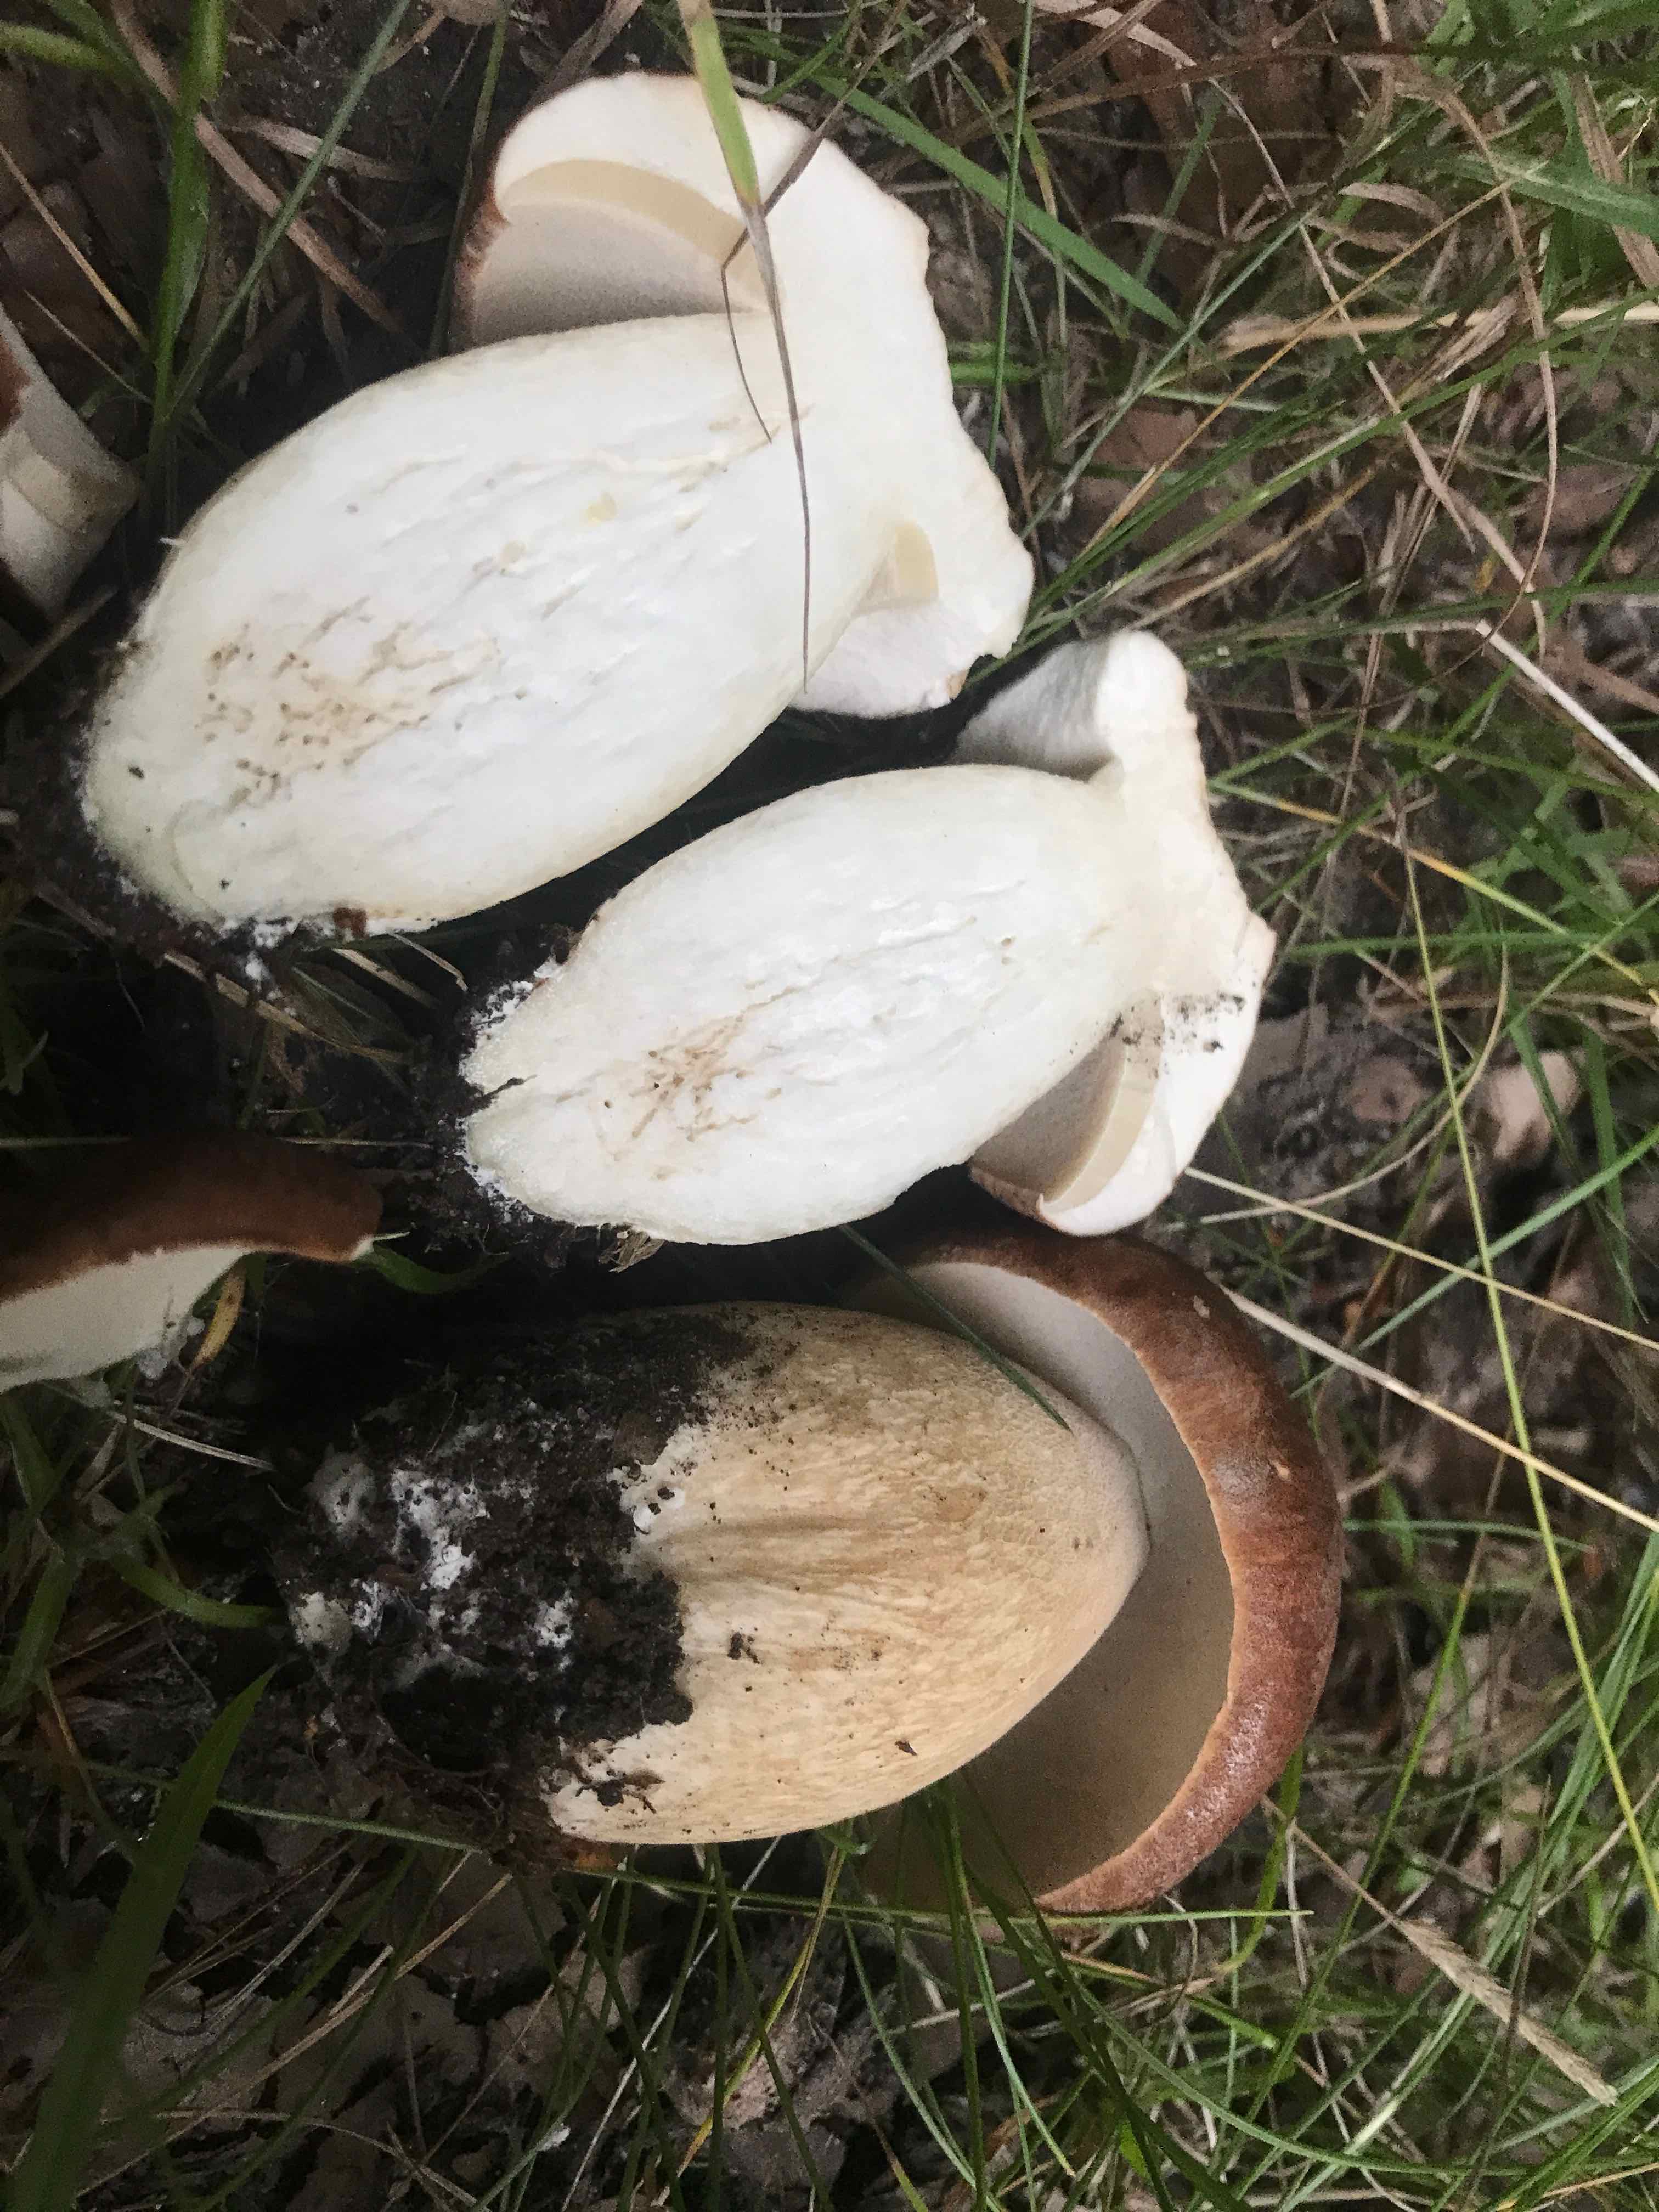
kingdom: Fungi
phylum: Basidiomycota
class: Agaricomycetes
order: Boletales
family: Boletaceae
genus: Boletus
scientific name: Boletus edulis
